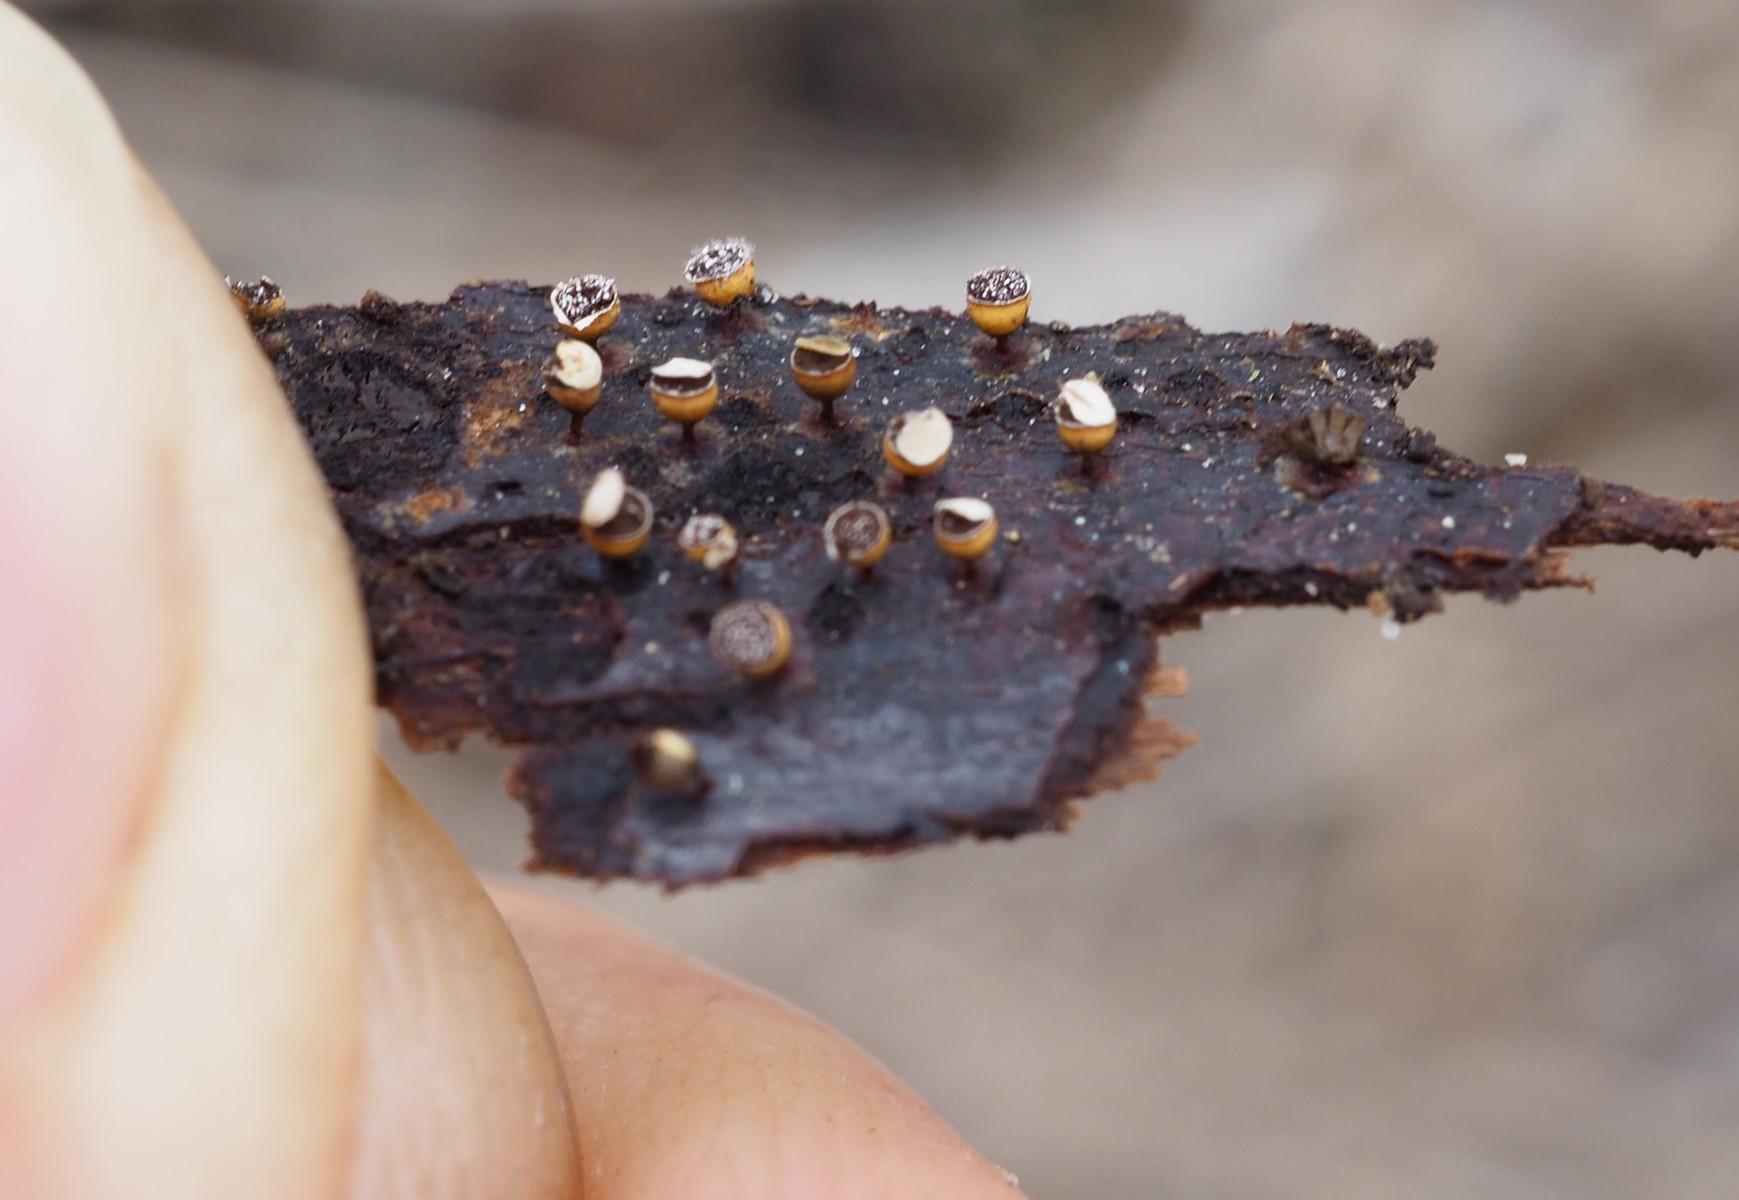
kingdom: Protozoa
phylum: Mycetozoa
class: Myxomycetes
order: Physarales
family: Physaraceae
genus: Craterium
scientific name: Craterium minutum
